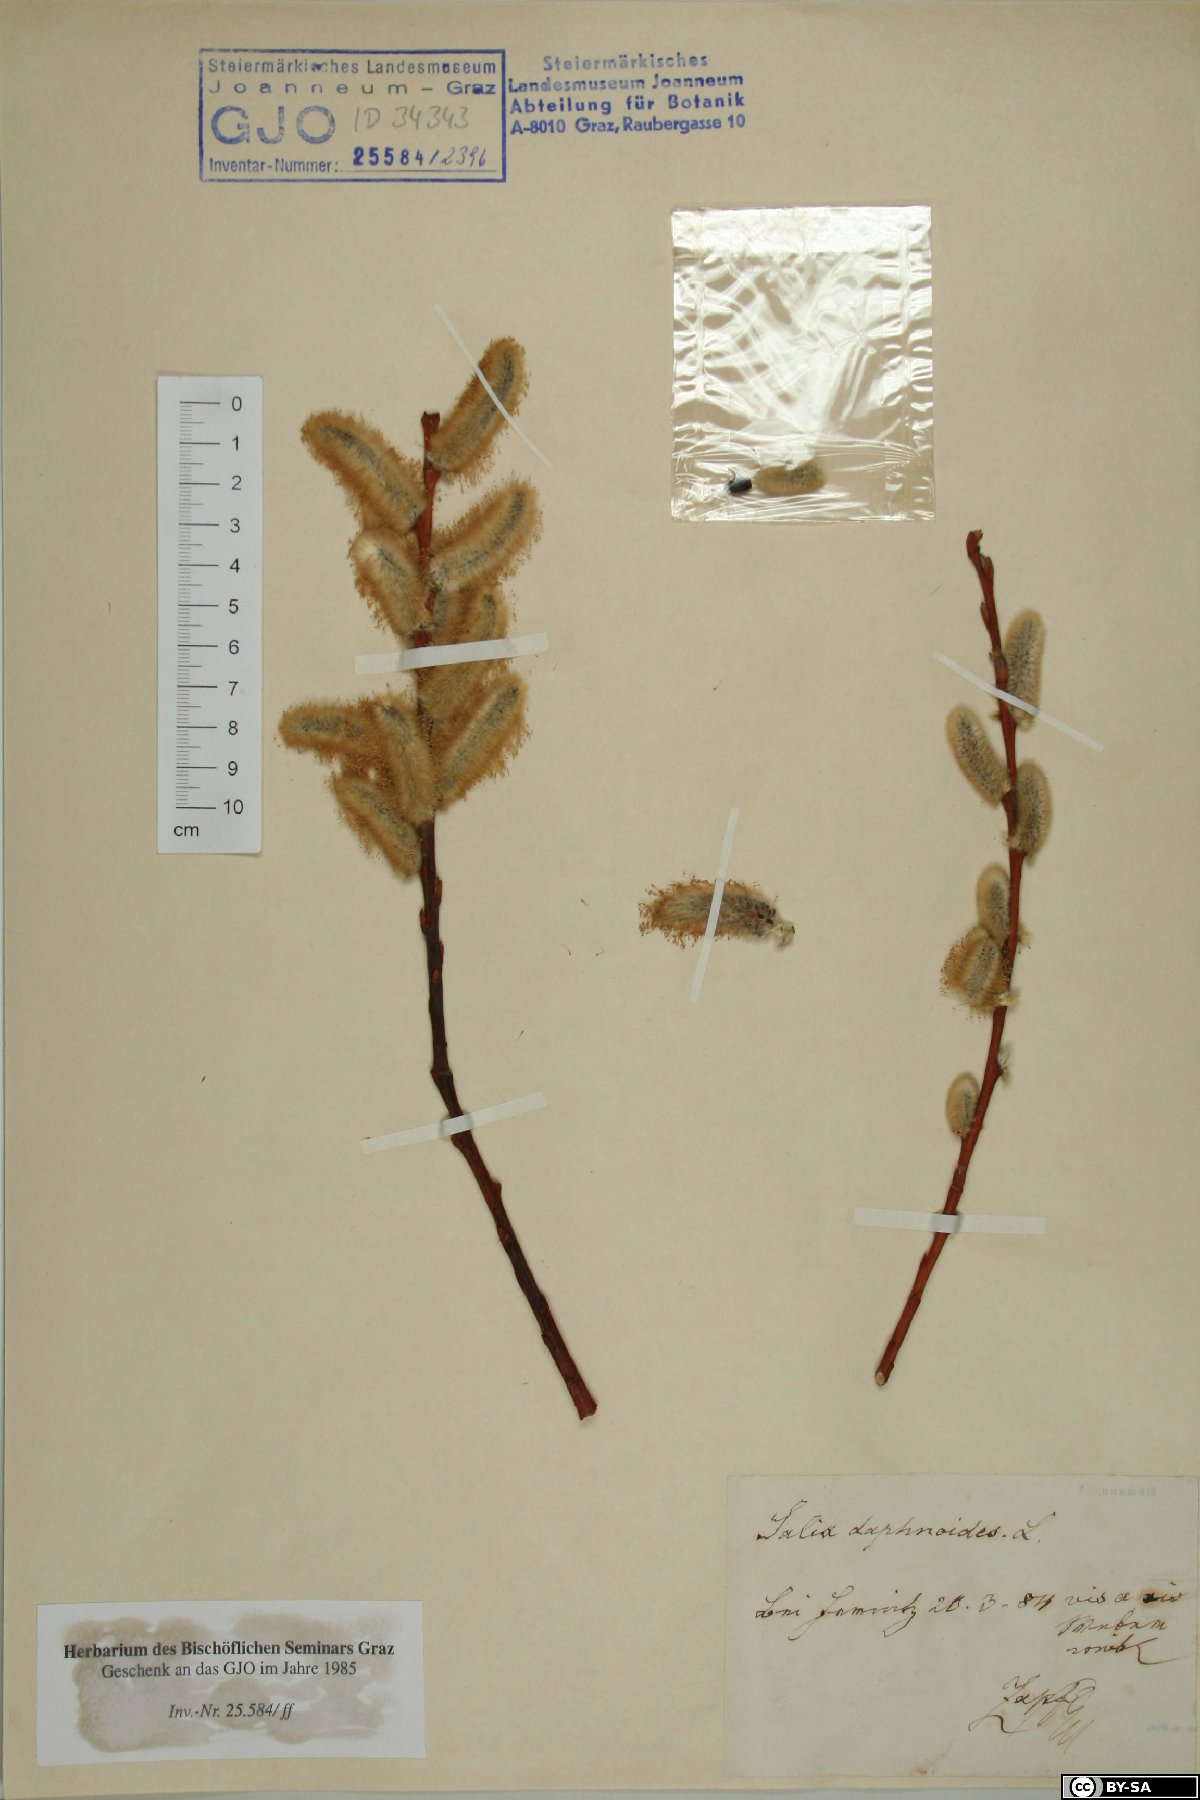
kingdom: Plantae
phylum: Tracheophyta
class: Magnoliopsida
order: Malpighiales
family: Salicaceae
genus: Salix
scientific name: Salix daphnoides
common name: European violet-willow
